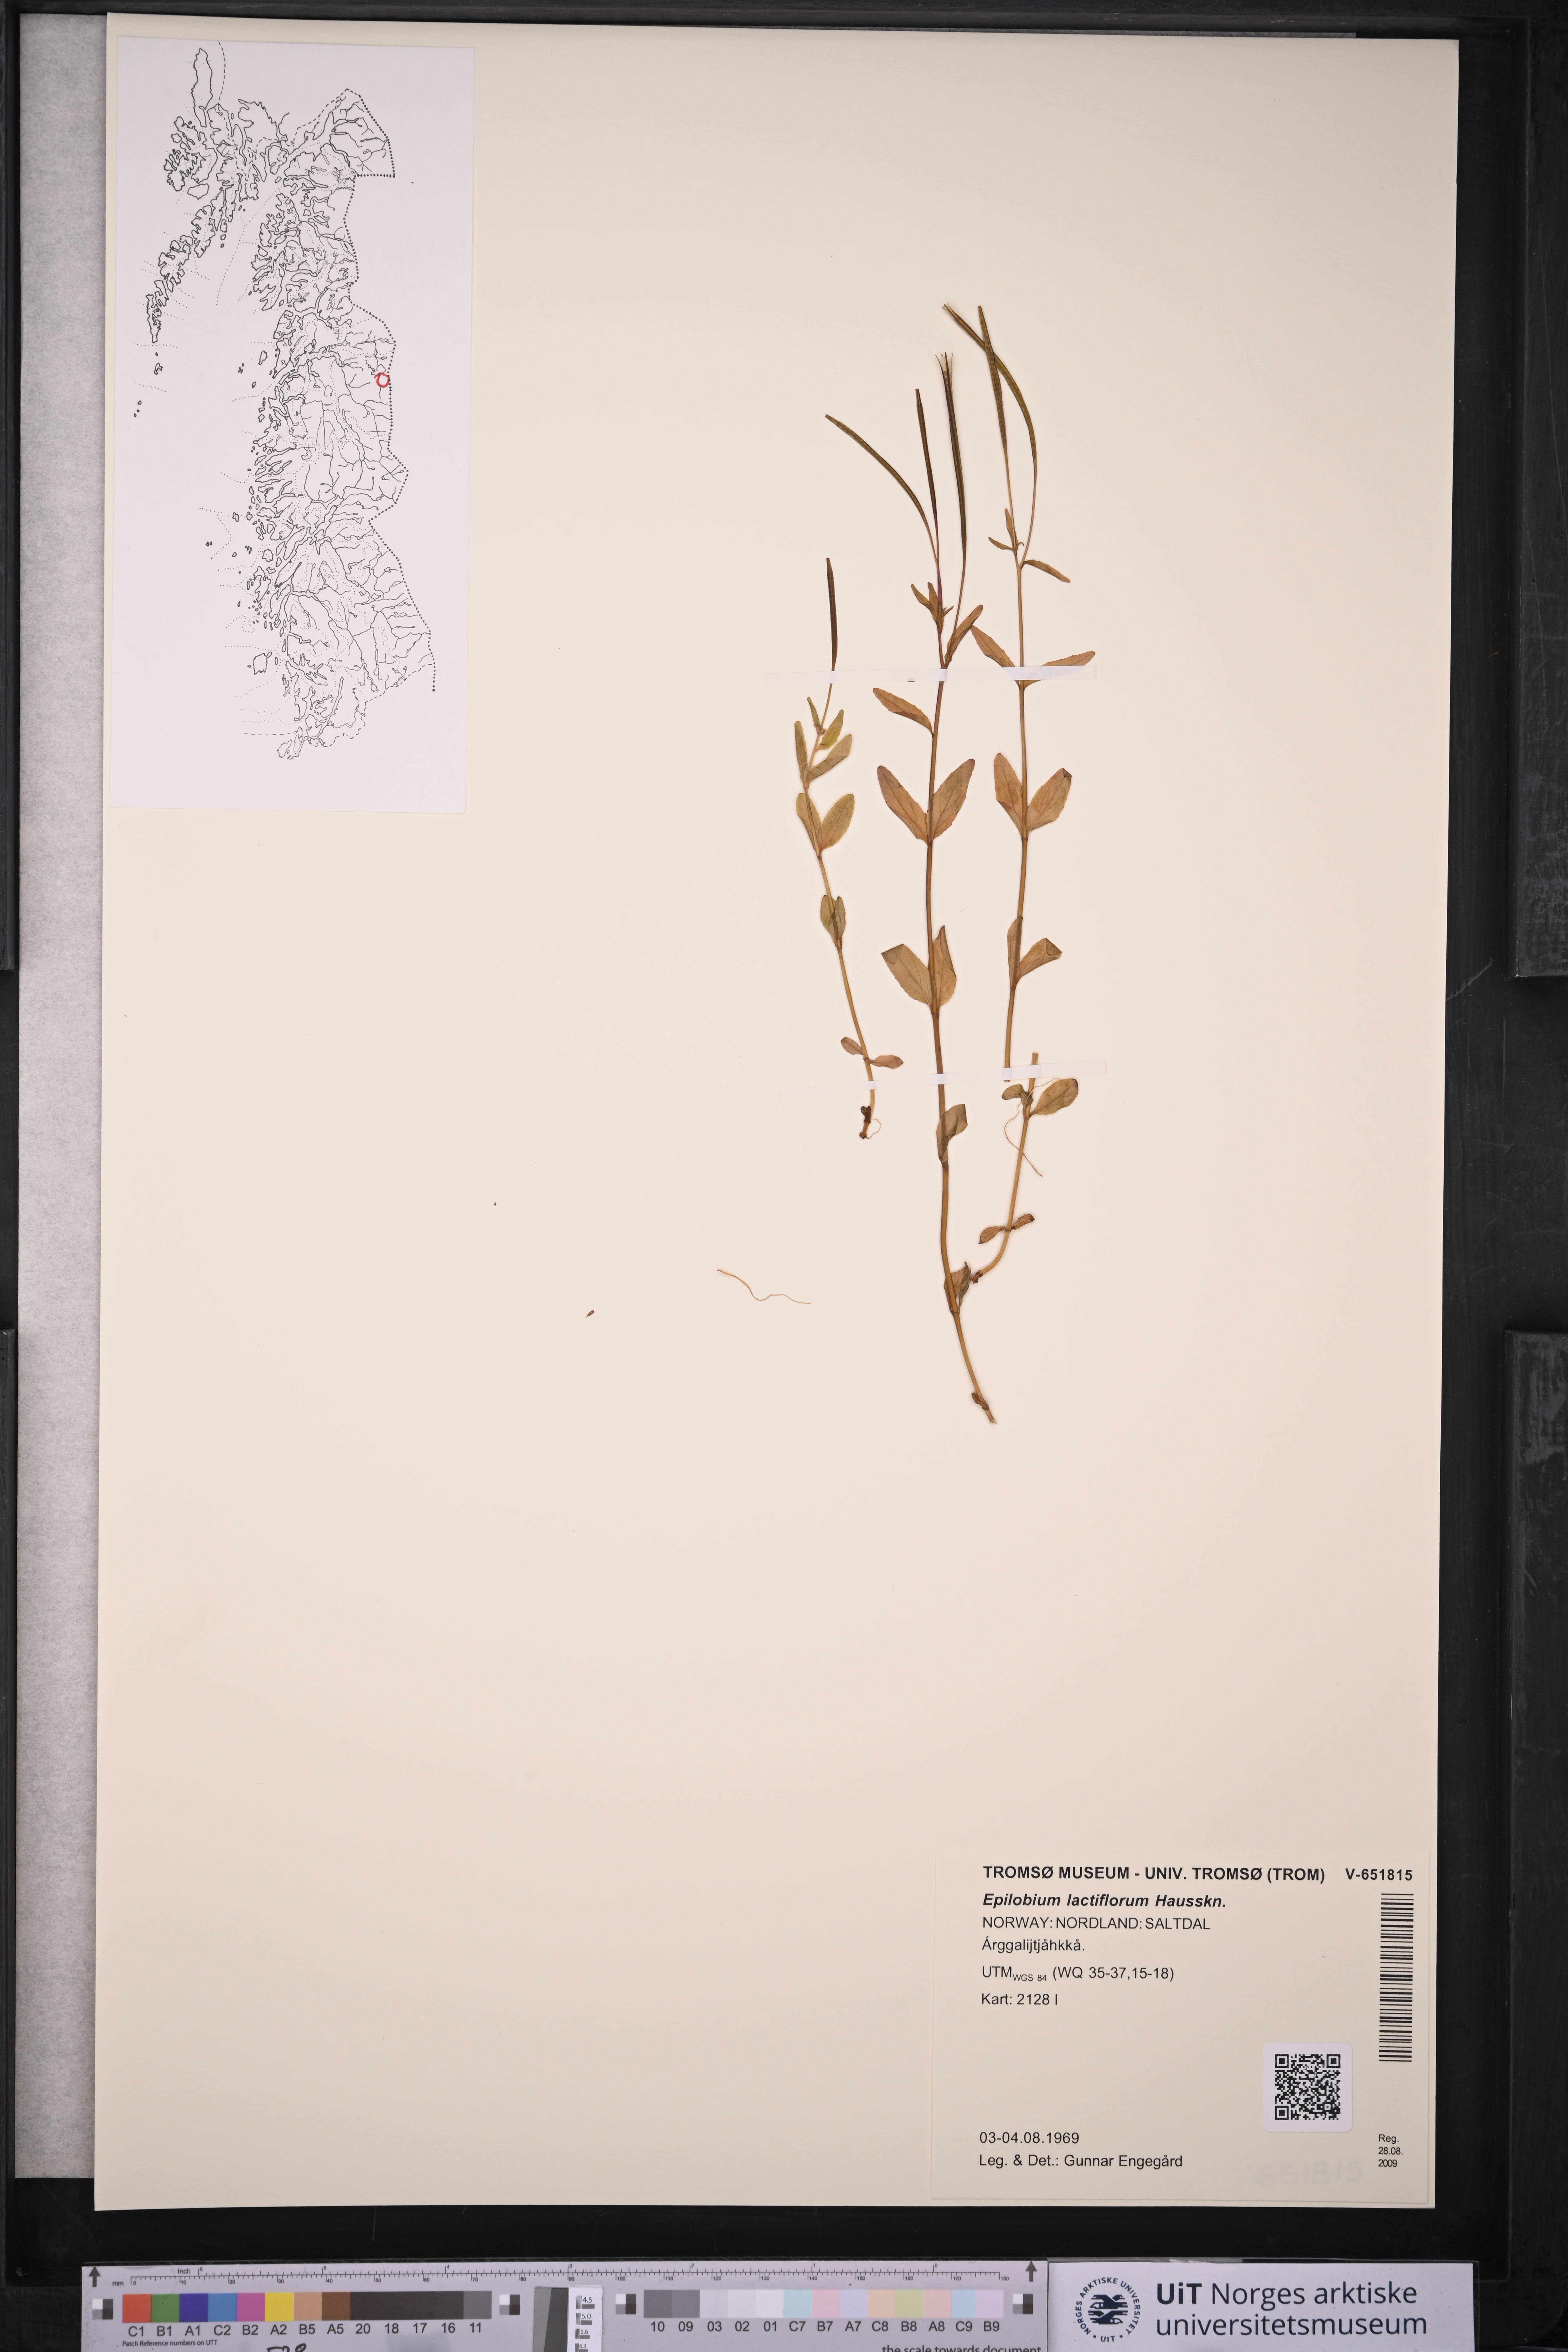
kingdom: Plantae
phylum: Tracheophyta
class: Magnoliopsida
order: Myrtales
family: Onagraceae
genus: Epilobium
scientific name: Epilobium lactiflorum
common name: Milkflower willowherb
